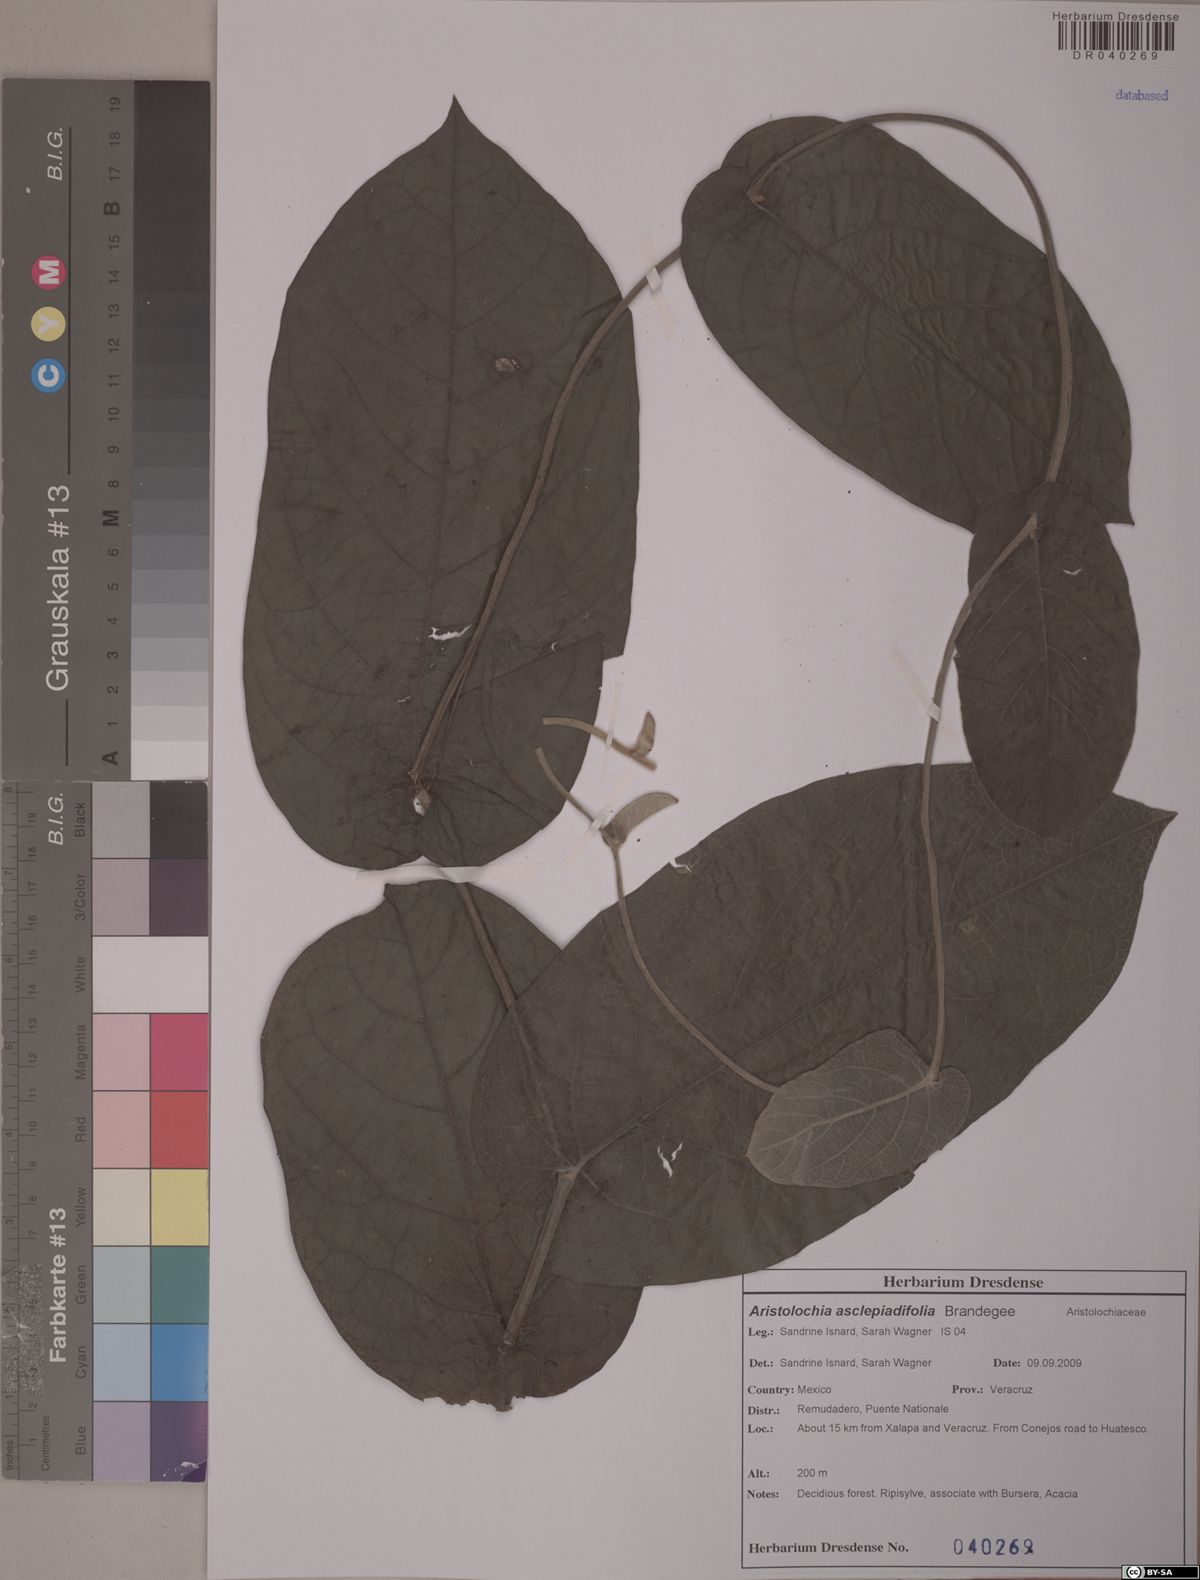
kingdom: Plantae
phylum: Tracheophyta
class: Magnoliopsida
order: Piperales
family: Aristolochiaceae
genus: Isotrema
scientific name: Isotrema asclepiadifolium
